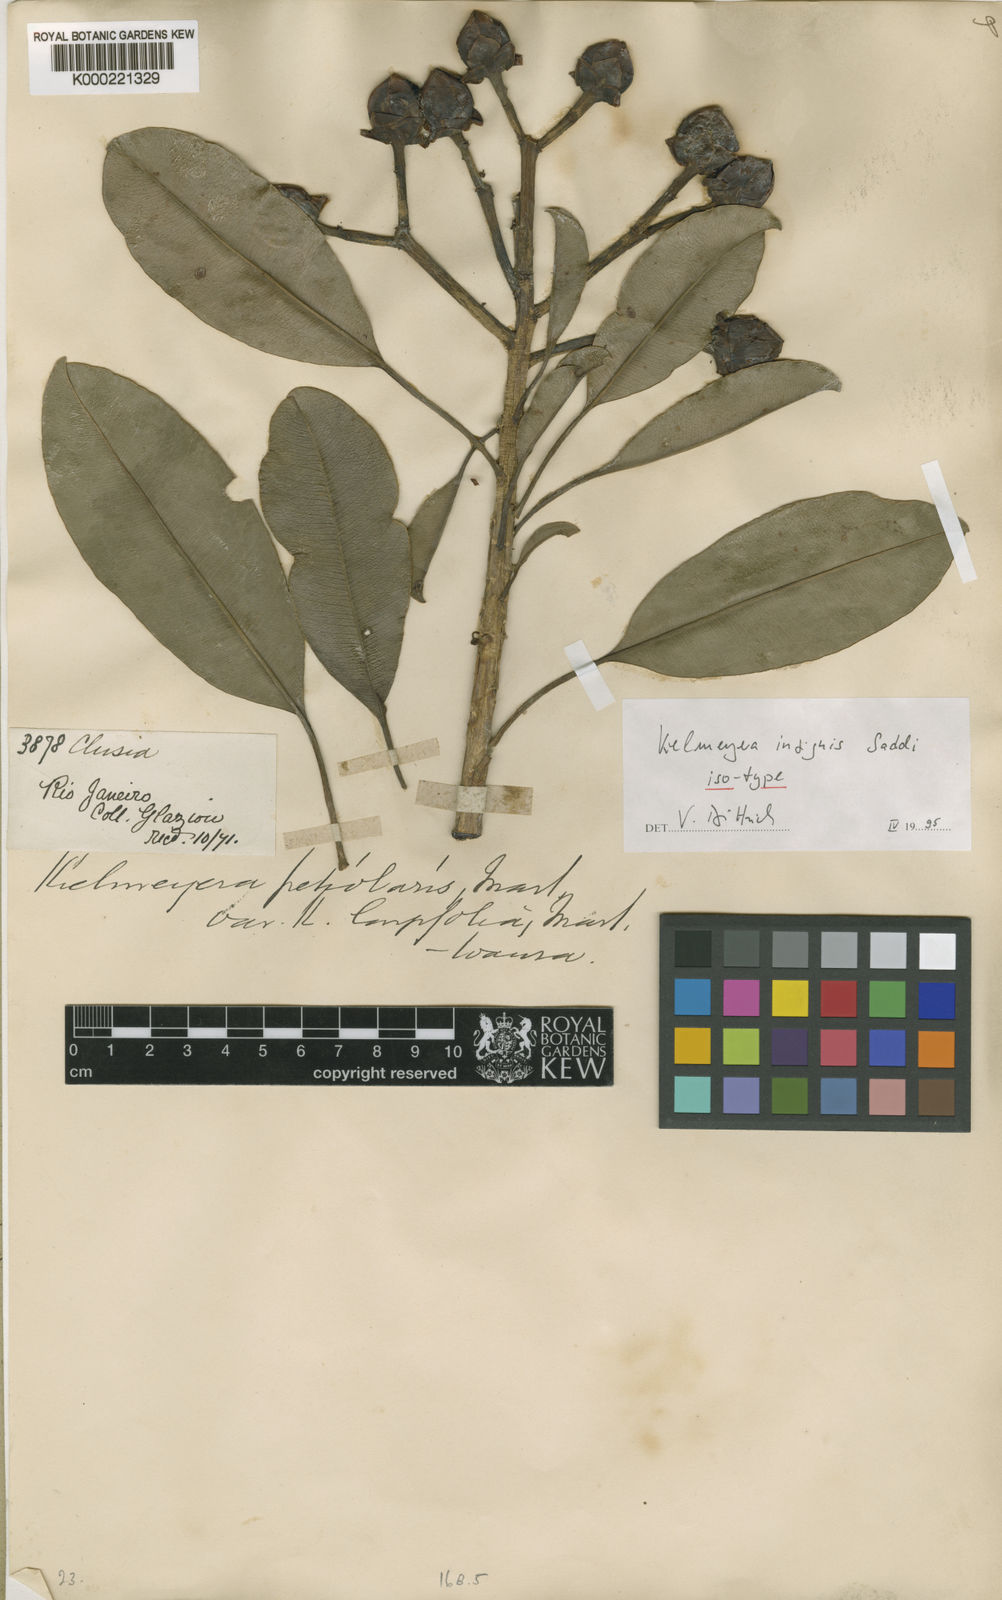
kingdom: Plantae
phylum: Tracheophyta
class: Magnoliopsida
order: Malpighiales
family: Calophyllaceae
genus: Kielmeyera
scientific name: Kielmeyera insignis
